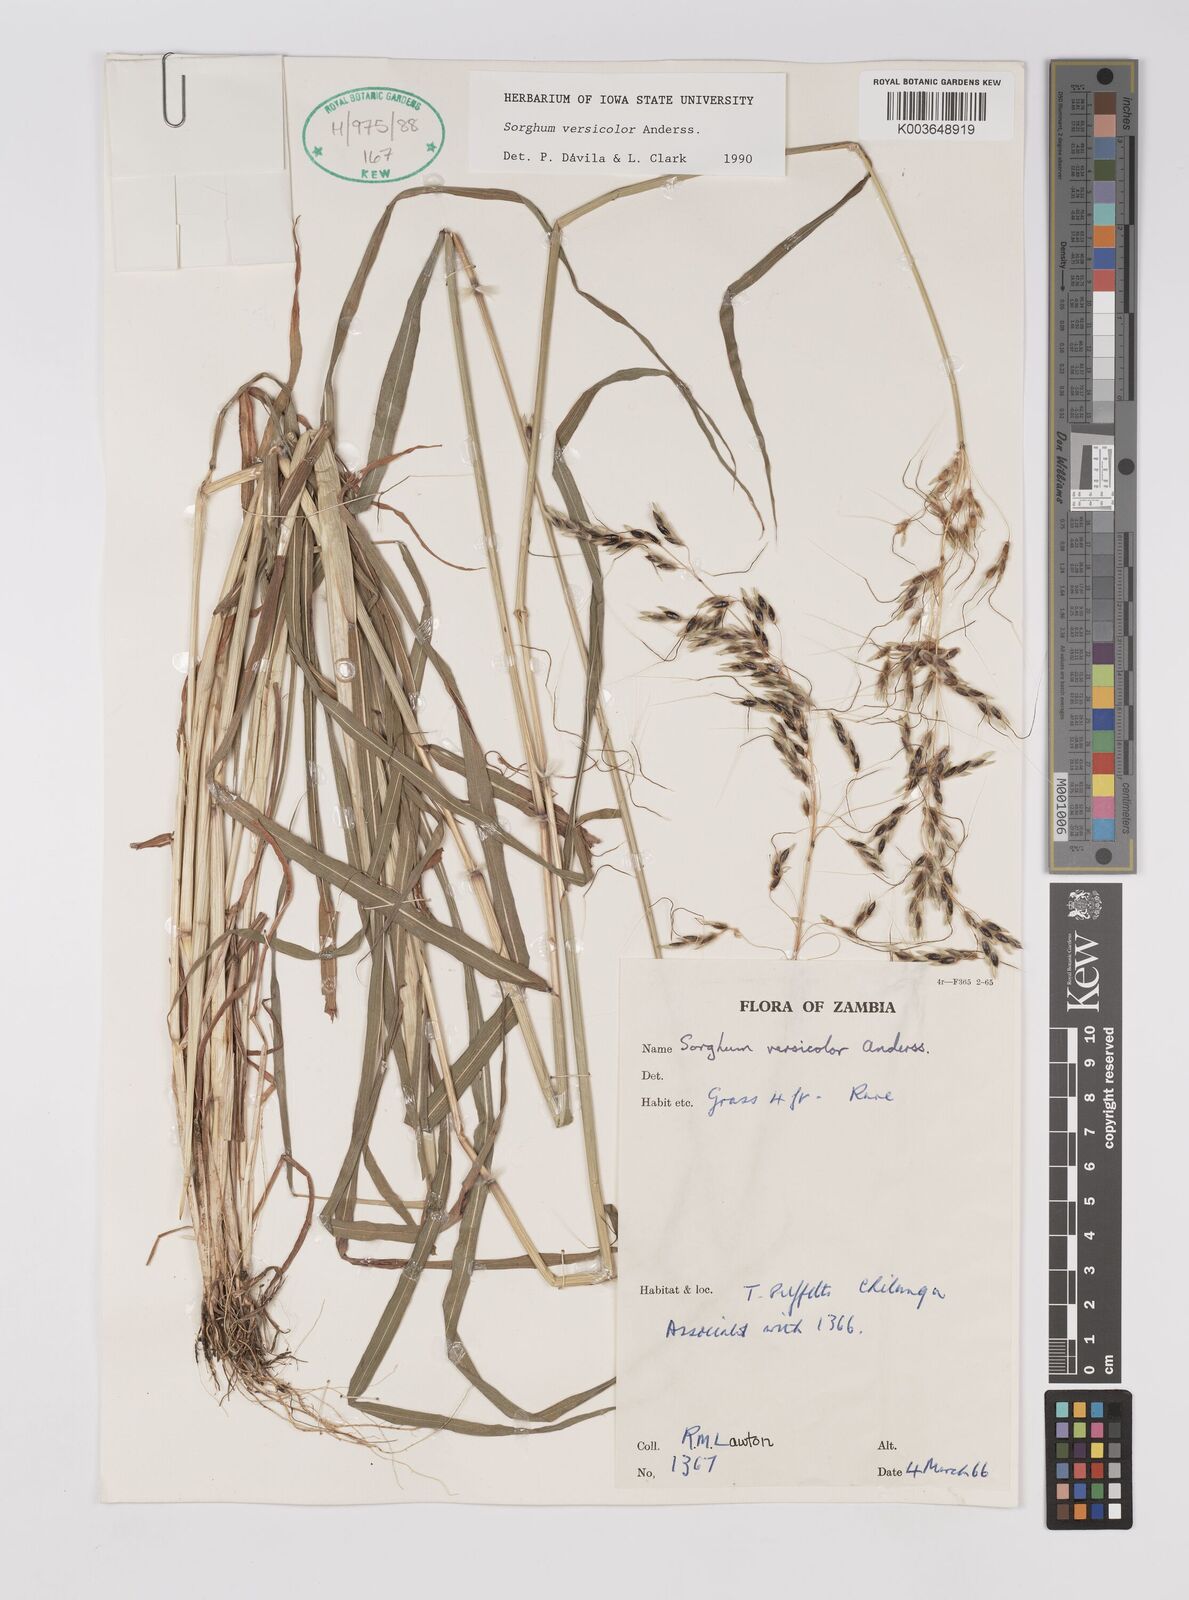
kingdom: Plantae
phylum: Tracheophyta
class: Liliopsida
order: Poales
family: Poaceae
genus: Sarga
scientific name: Sarga versicolor
